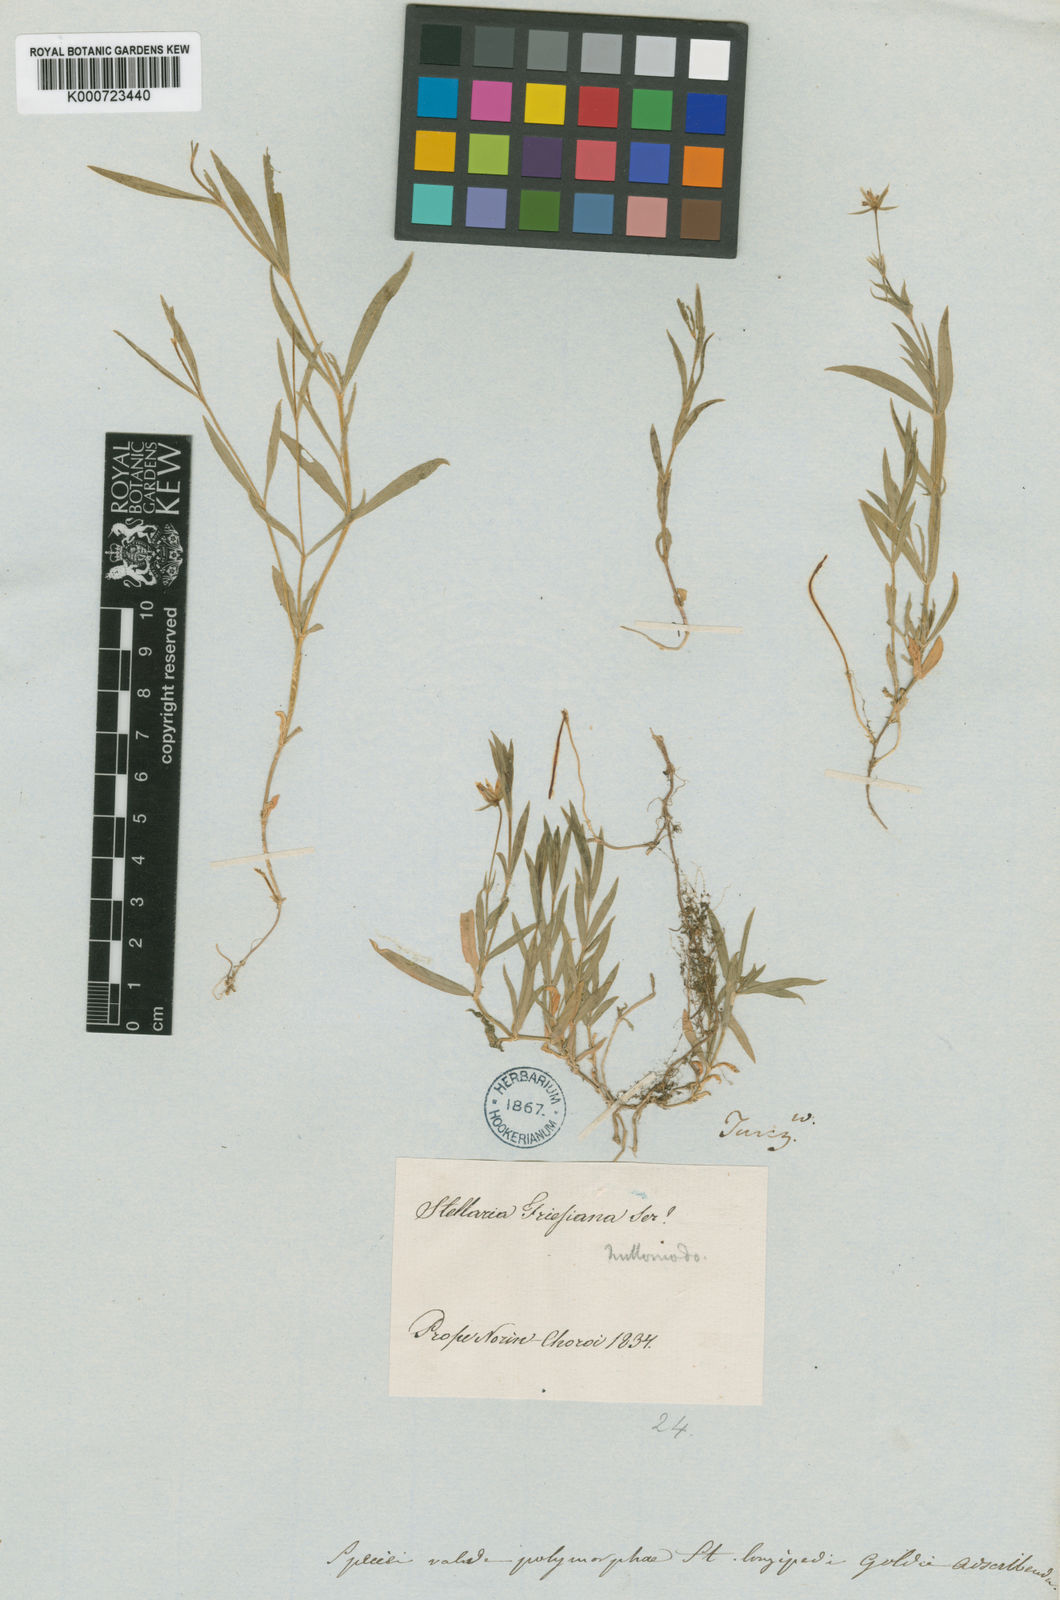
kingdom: Plantae
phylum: Tracheophyta
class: Magnoliopsida
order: Caryophyllales
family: Caryophyllaceae
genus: Stellaria
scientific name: Stellaria peduncularis
